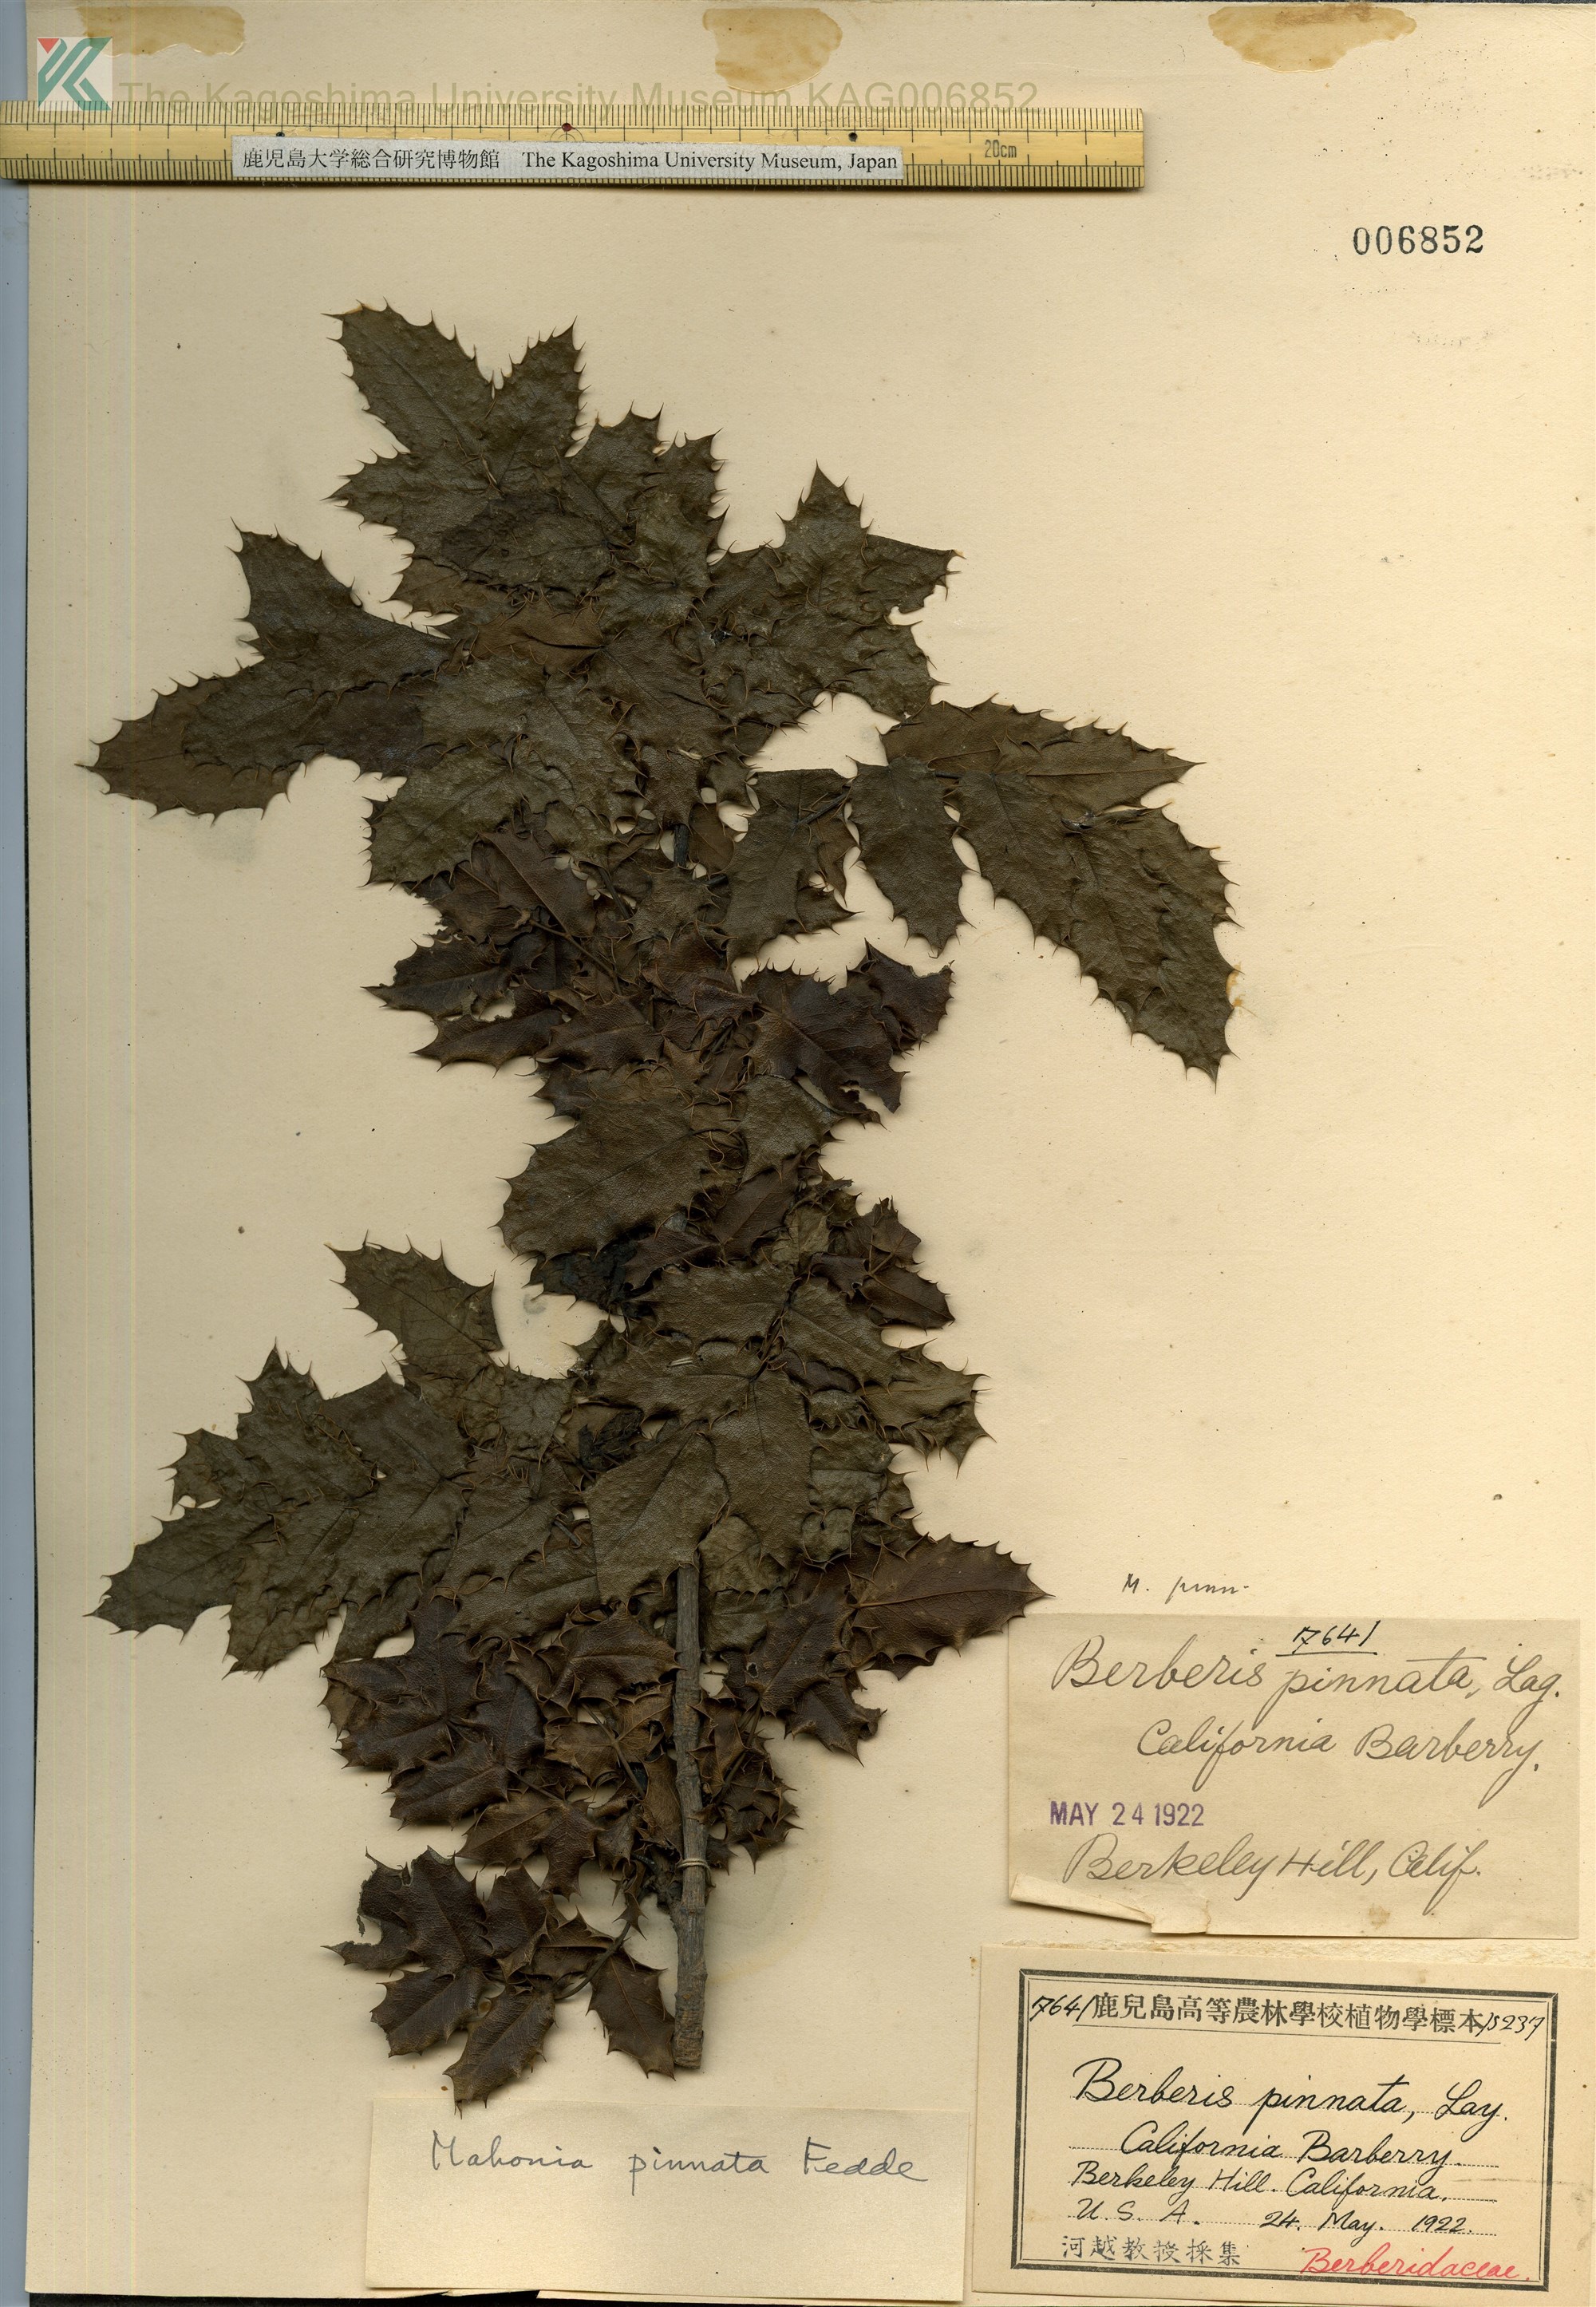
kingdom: Plantae
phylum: Tracheophyta
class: Magnoliopsida
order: Ranunculales
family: Berberidaceae
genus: Mahonia
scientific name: Mahonia pinnata
